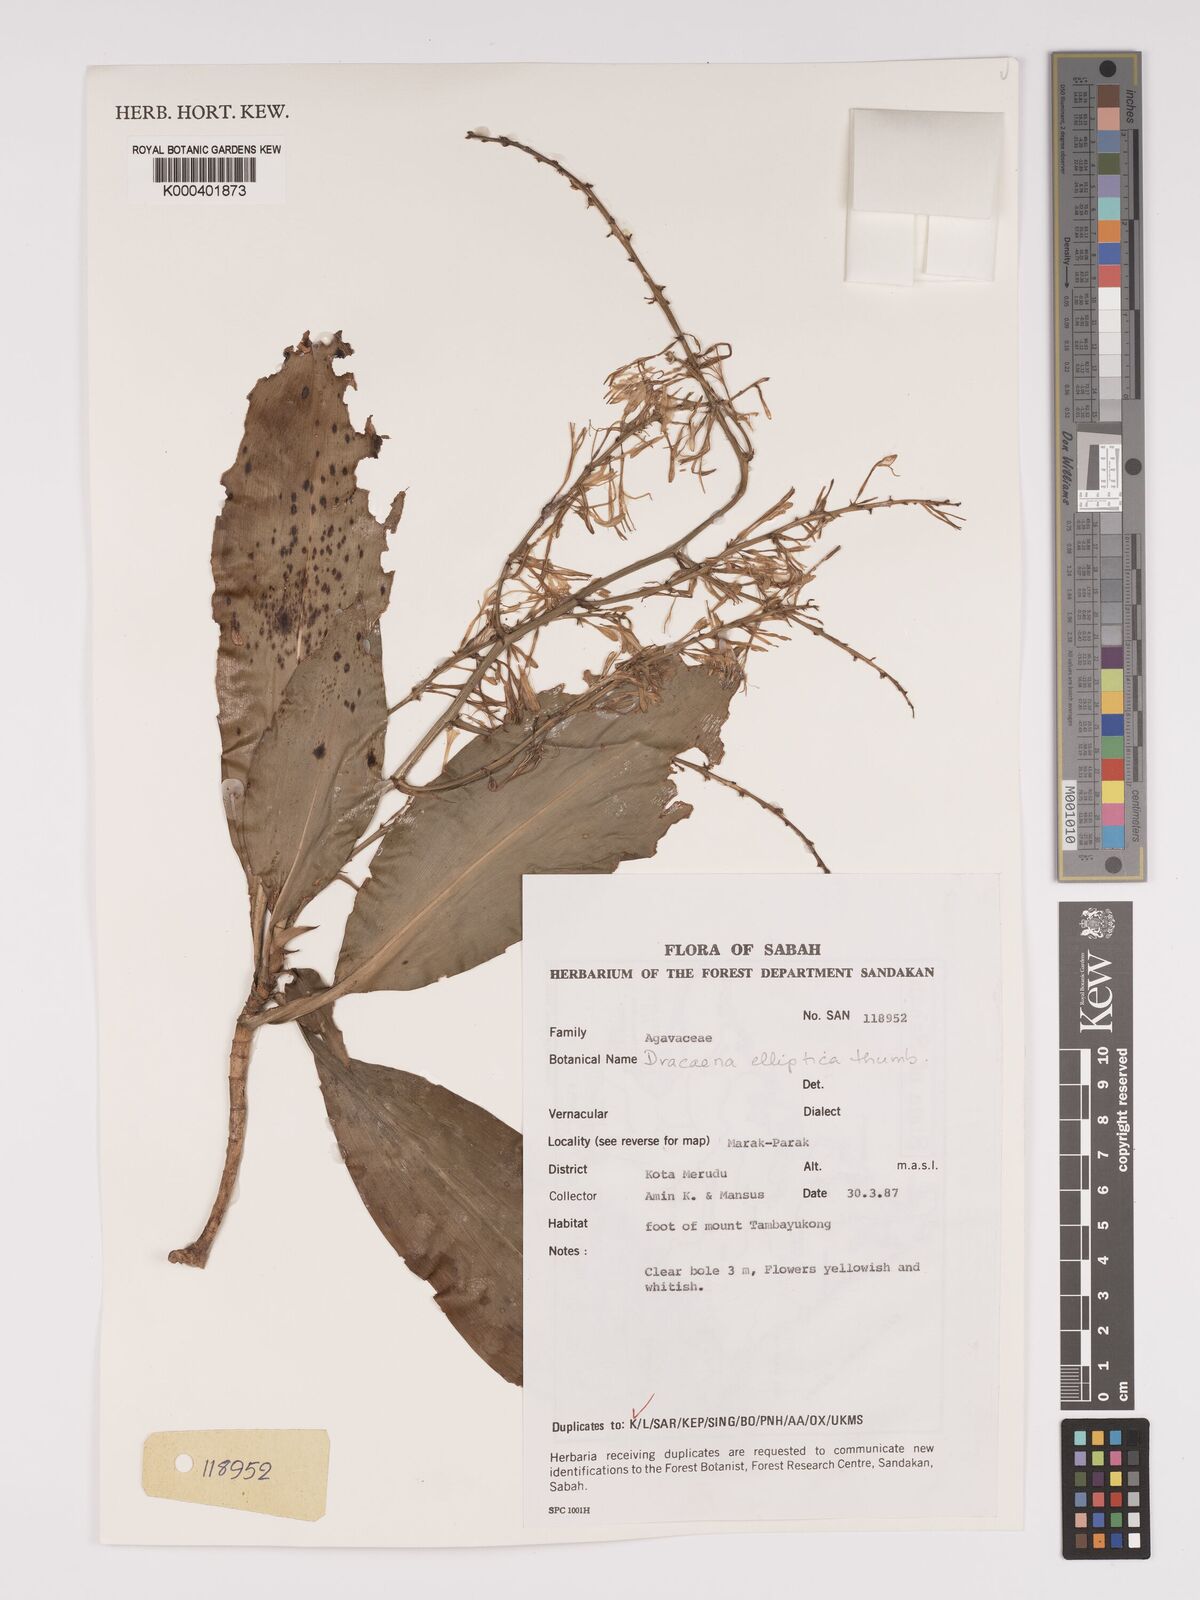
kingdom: Plantae
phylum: Tracheophyta
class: Liliopsida
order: Asparagales
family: Asparagaceae
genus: Dracaena
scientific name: Dracaena
